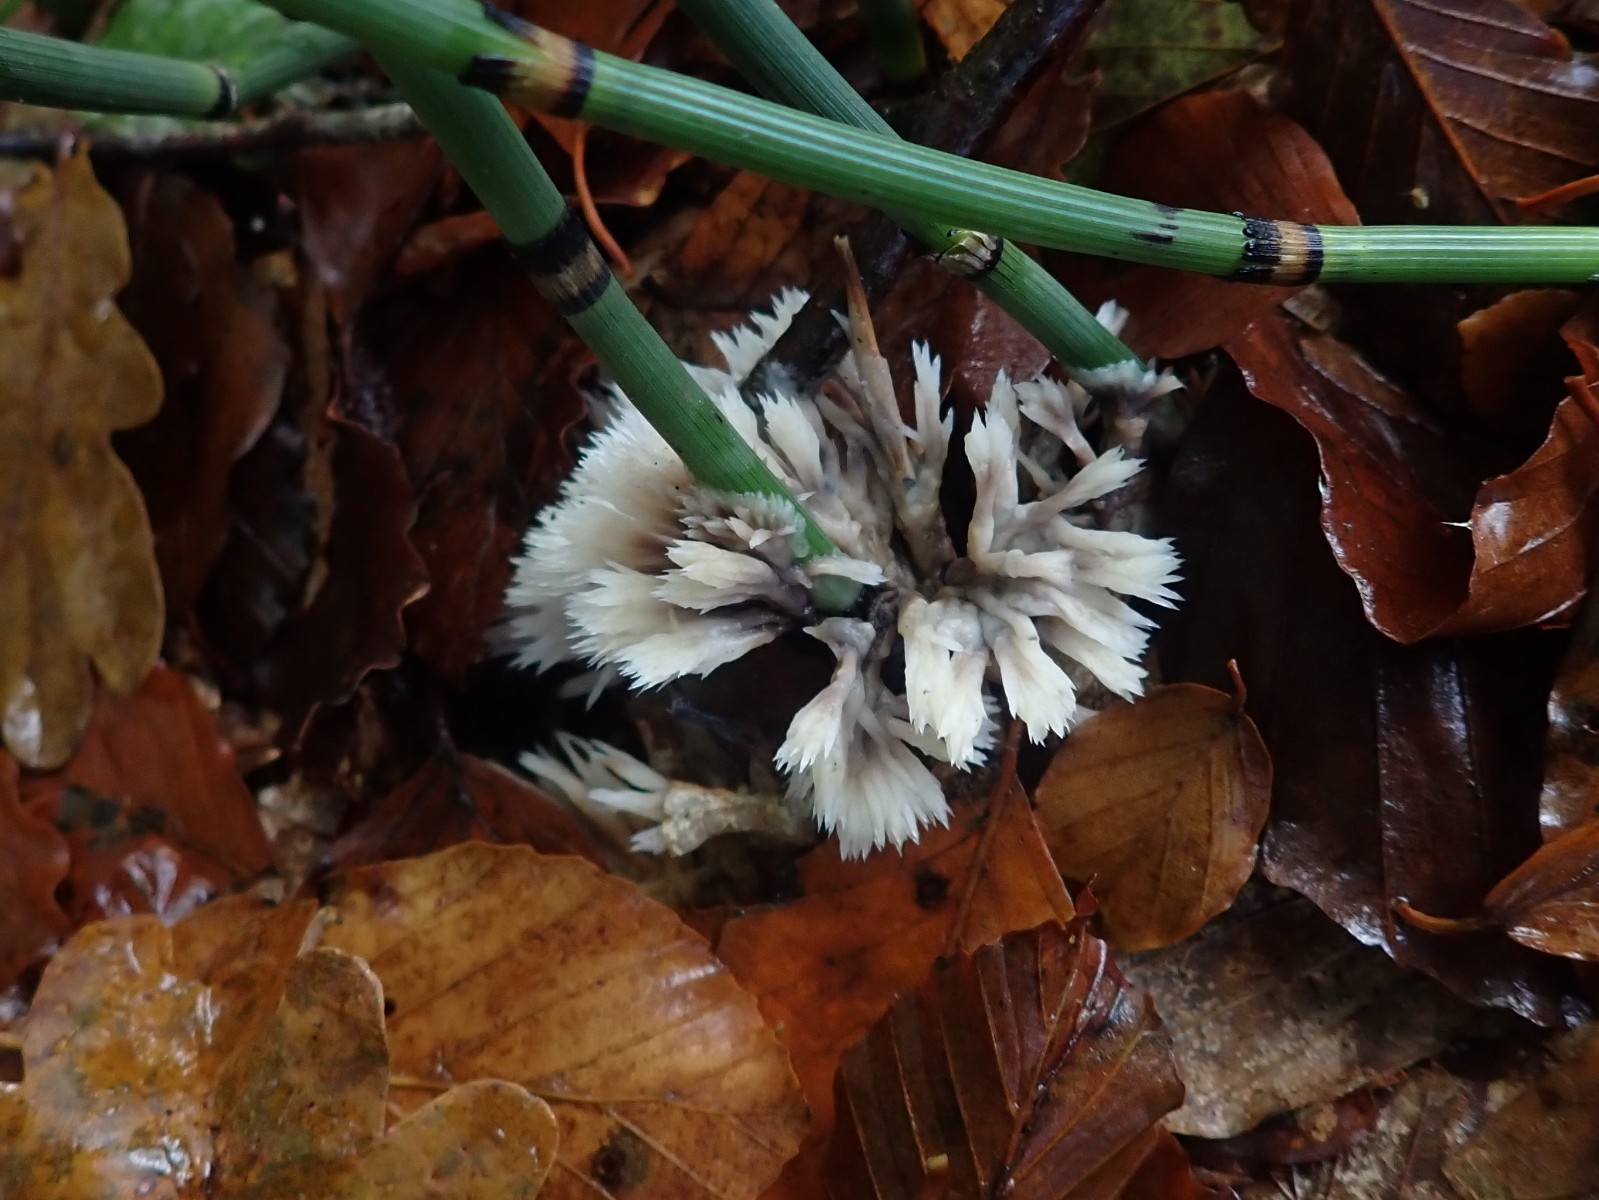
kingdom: Fungi
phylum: Basidiomycota
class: Agaricomycetes
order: Thelephorales
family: Thelephoraceae
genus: Thelephora
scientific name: Thelephora penicillata
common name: fladtrådt frynsesvamp
